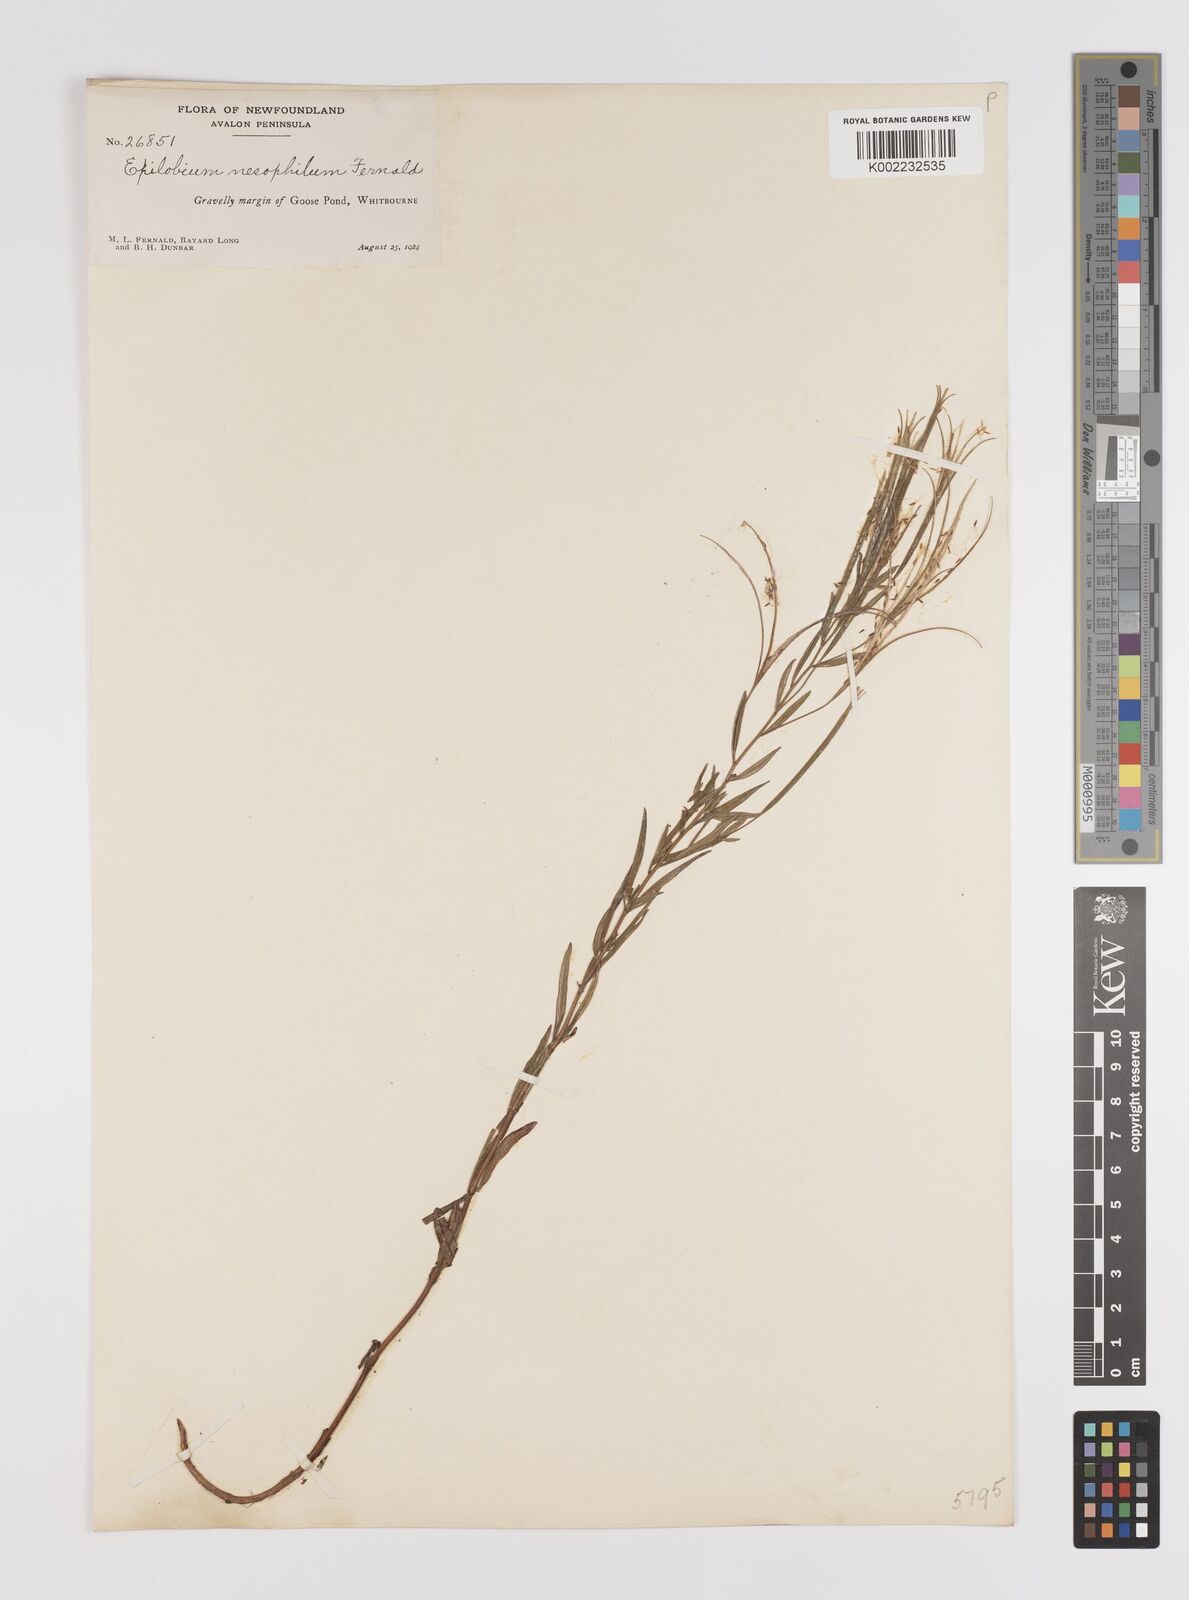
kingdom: Plantae
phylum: Tracheophyta
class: Magnoliopsida
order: Myrtales
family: Onagraceae
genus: Epilobium
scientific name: Epilobium leptophyllum
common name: Bog willowherb
